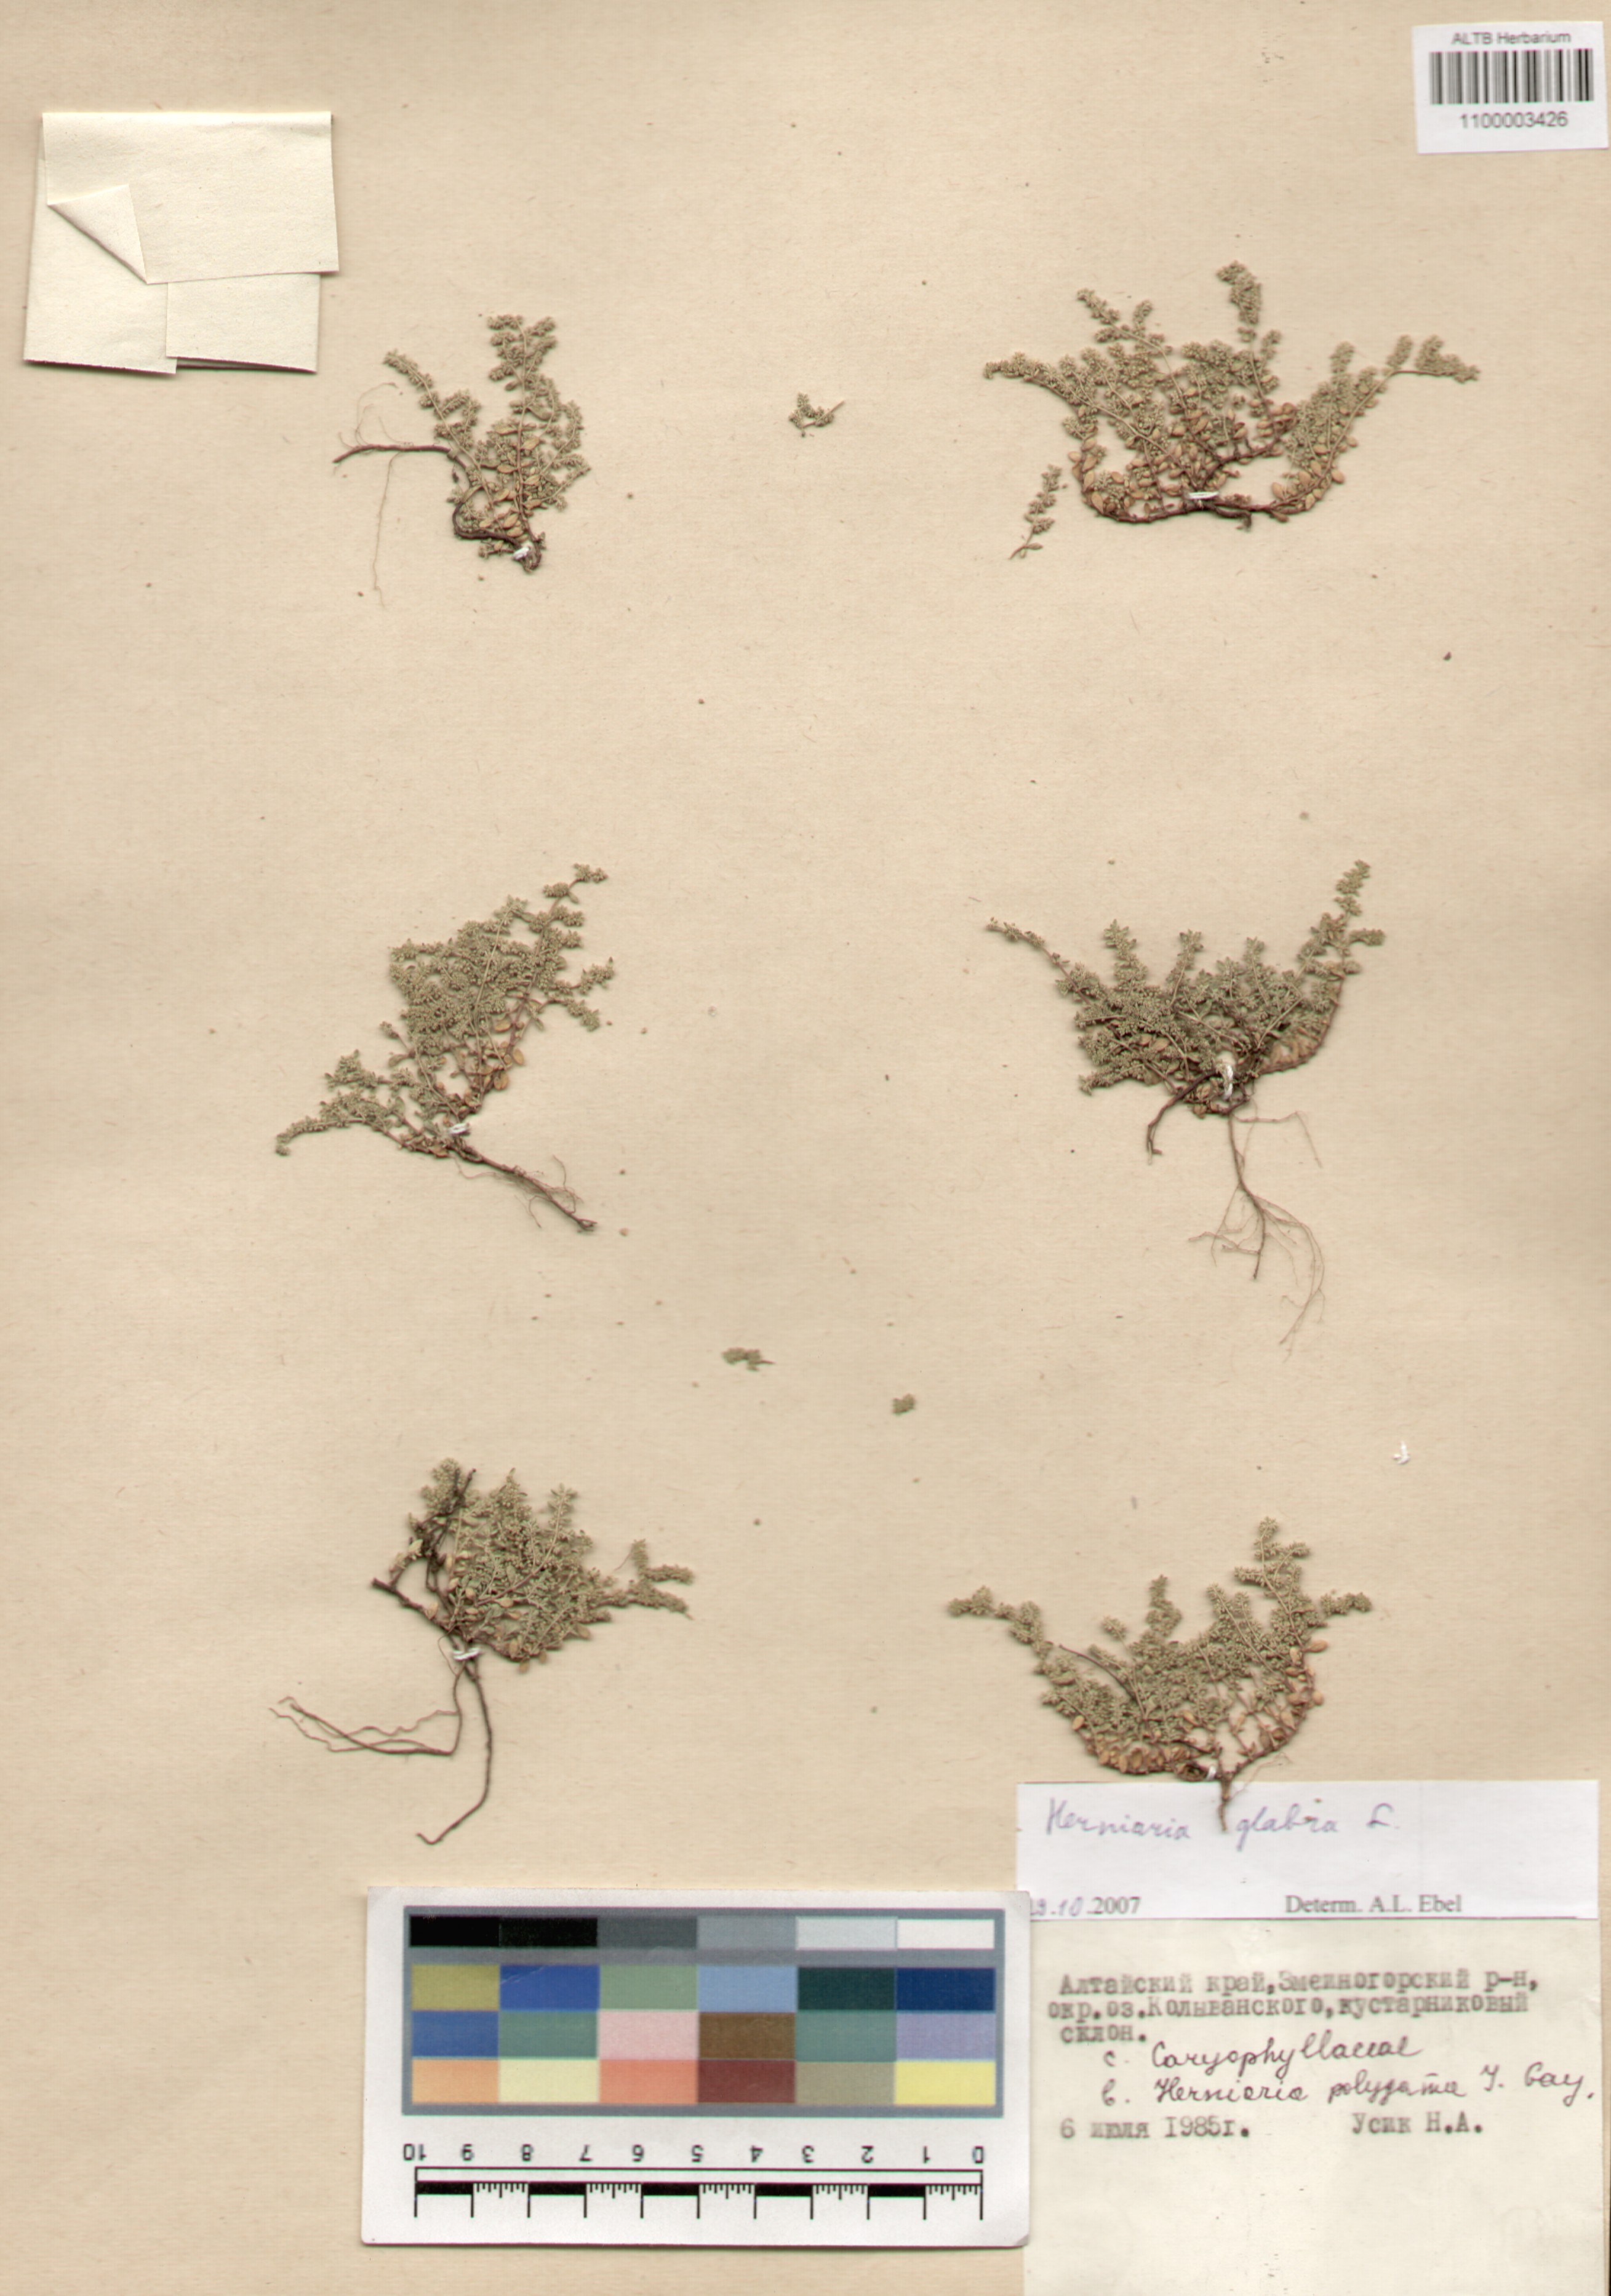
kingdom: Plantae
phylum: Tracheophyta
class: Magnoliopsida
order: Caryophyllales
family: Caryophyllaceae
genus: Herniaria
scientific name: Herniaria glabra
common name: Smooth rupturewort
